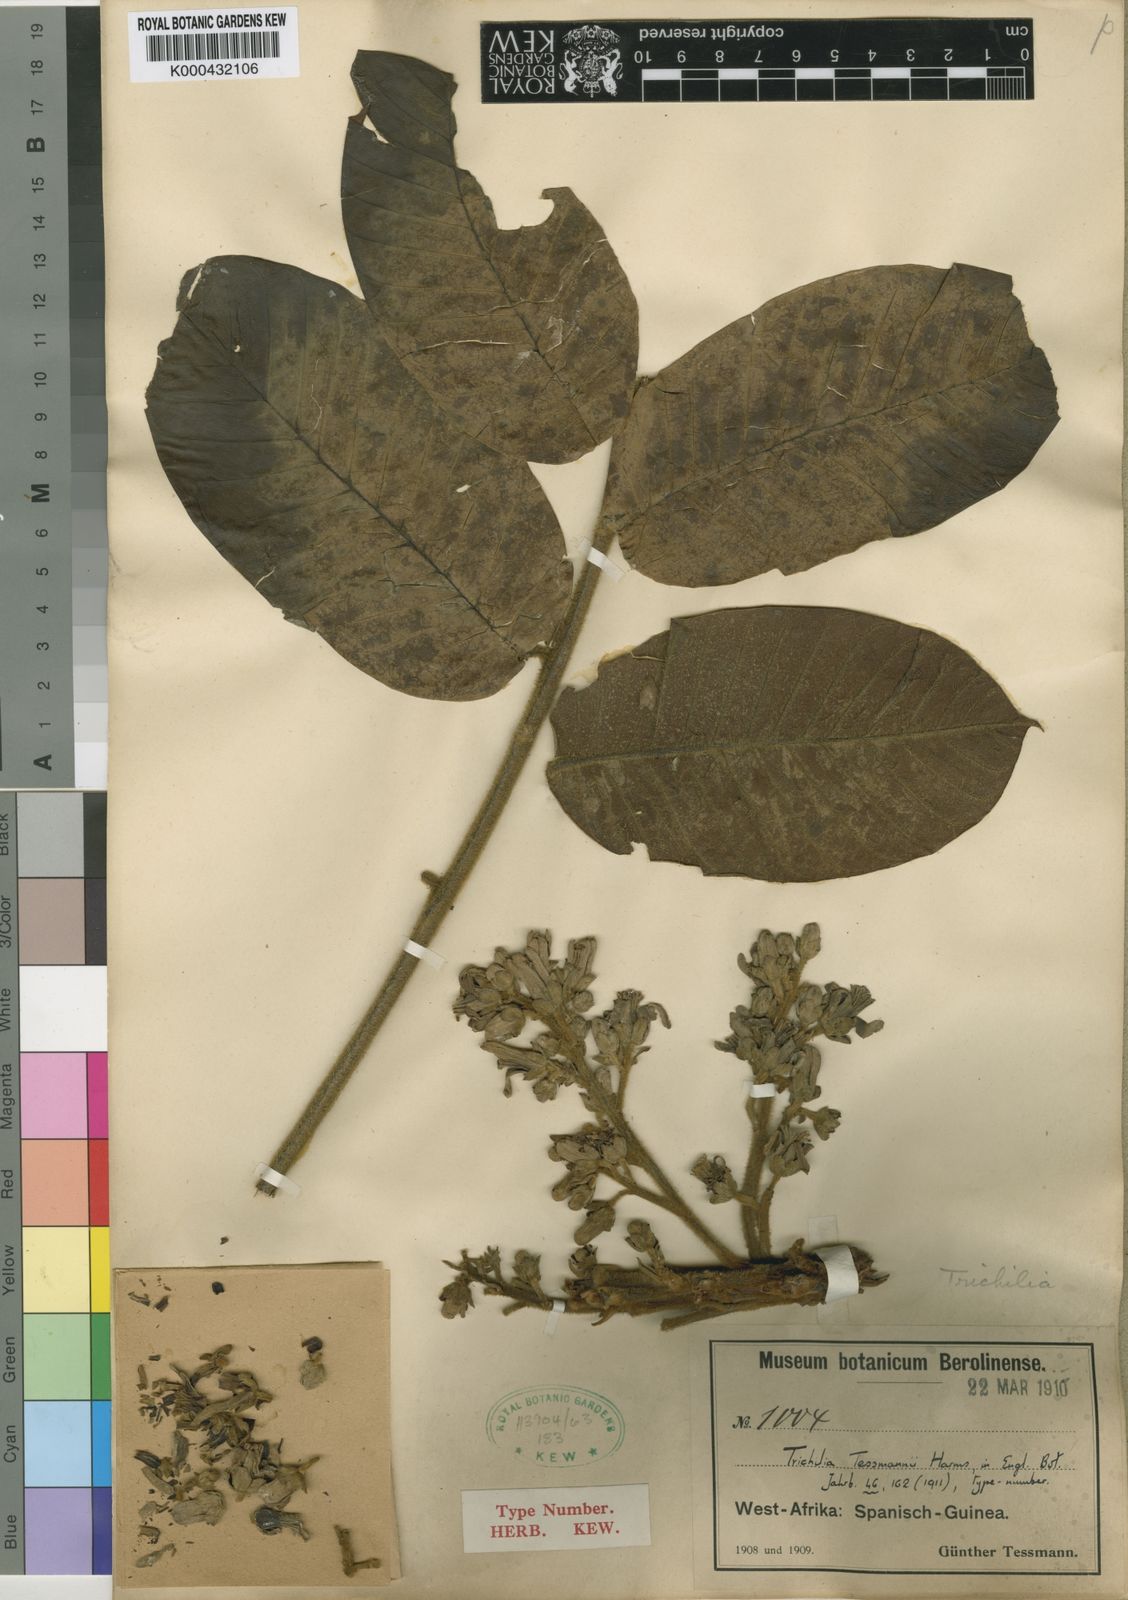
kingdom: Plantae
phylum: Tracheophyta
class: Magnoliopsida
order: Sapindales
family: Meliaceae
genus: Trichilia
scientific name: Trichilia tessmannii
